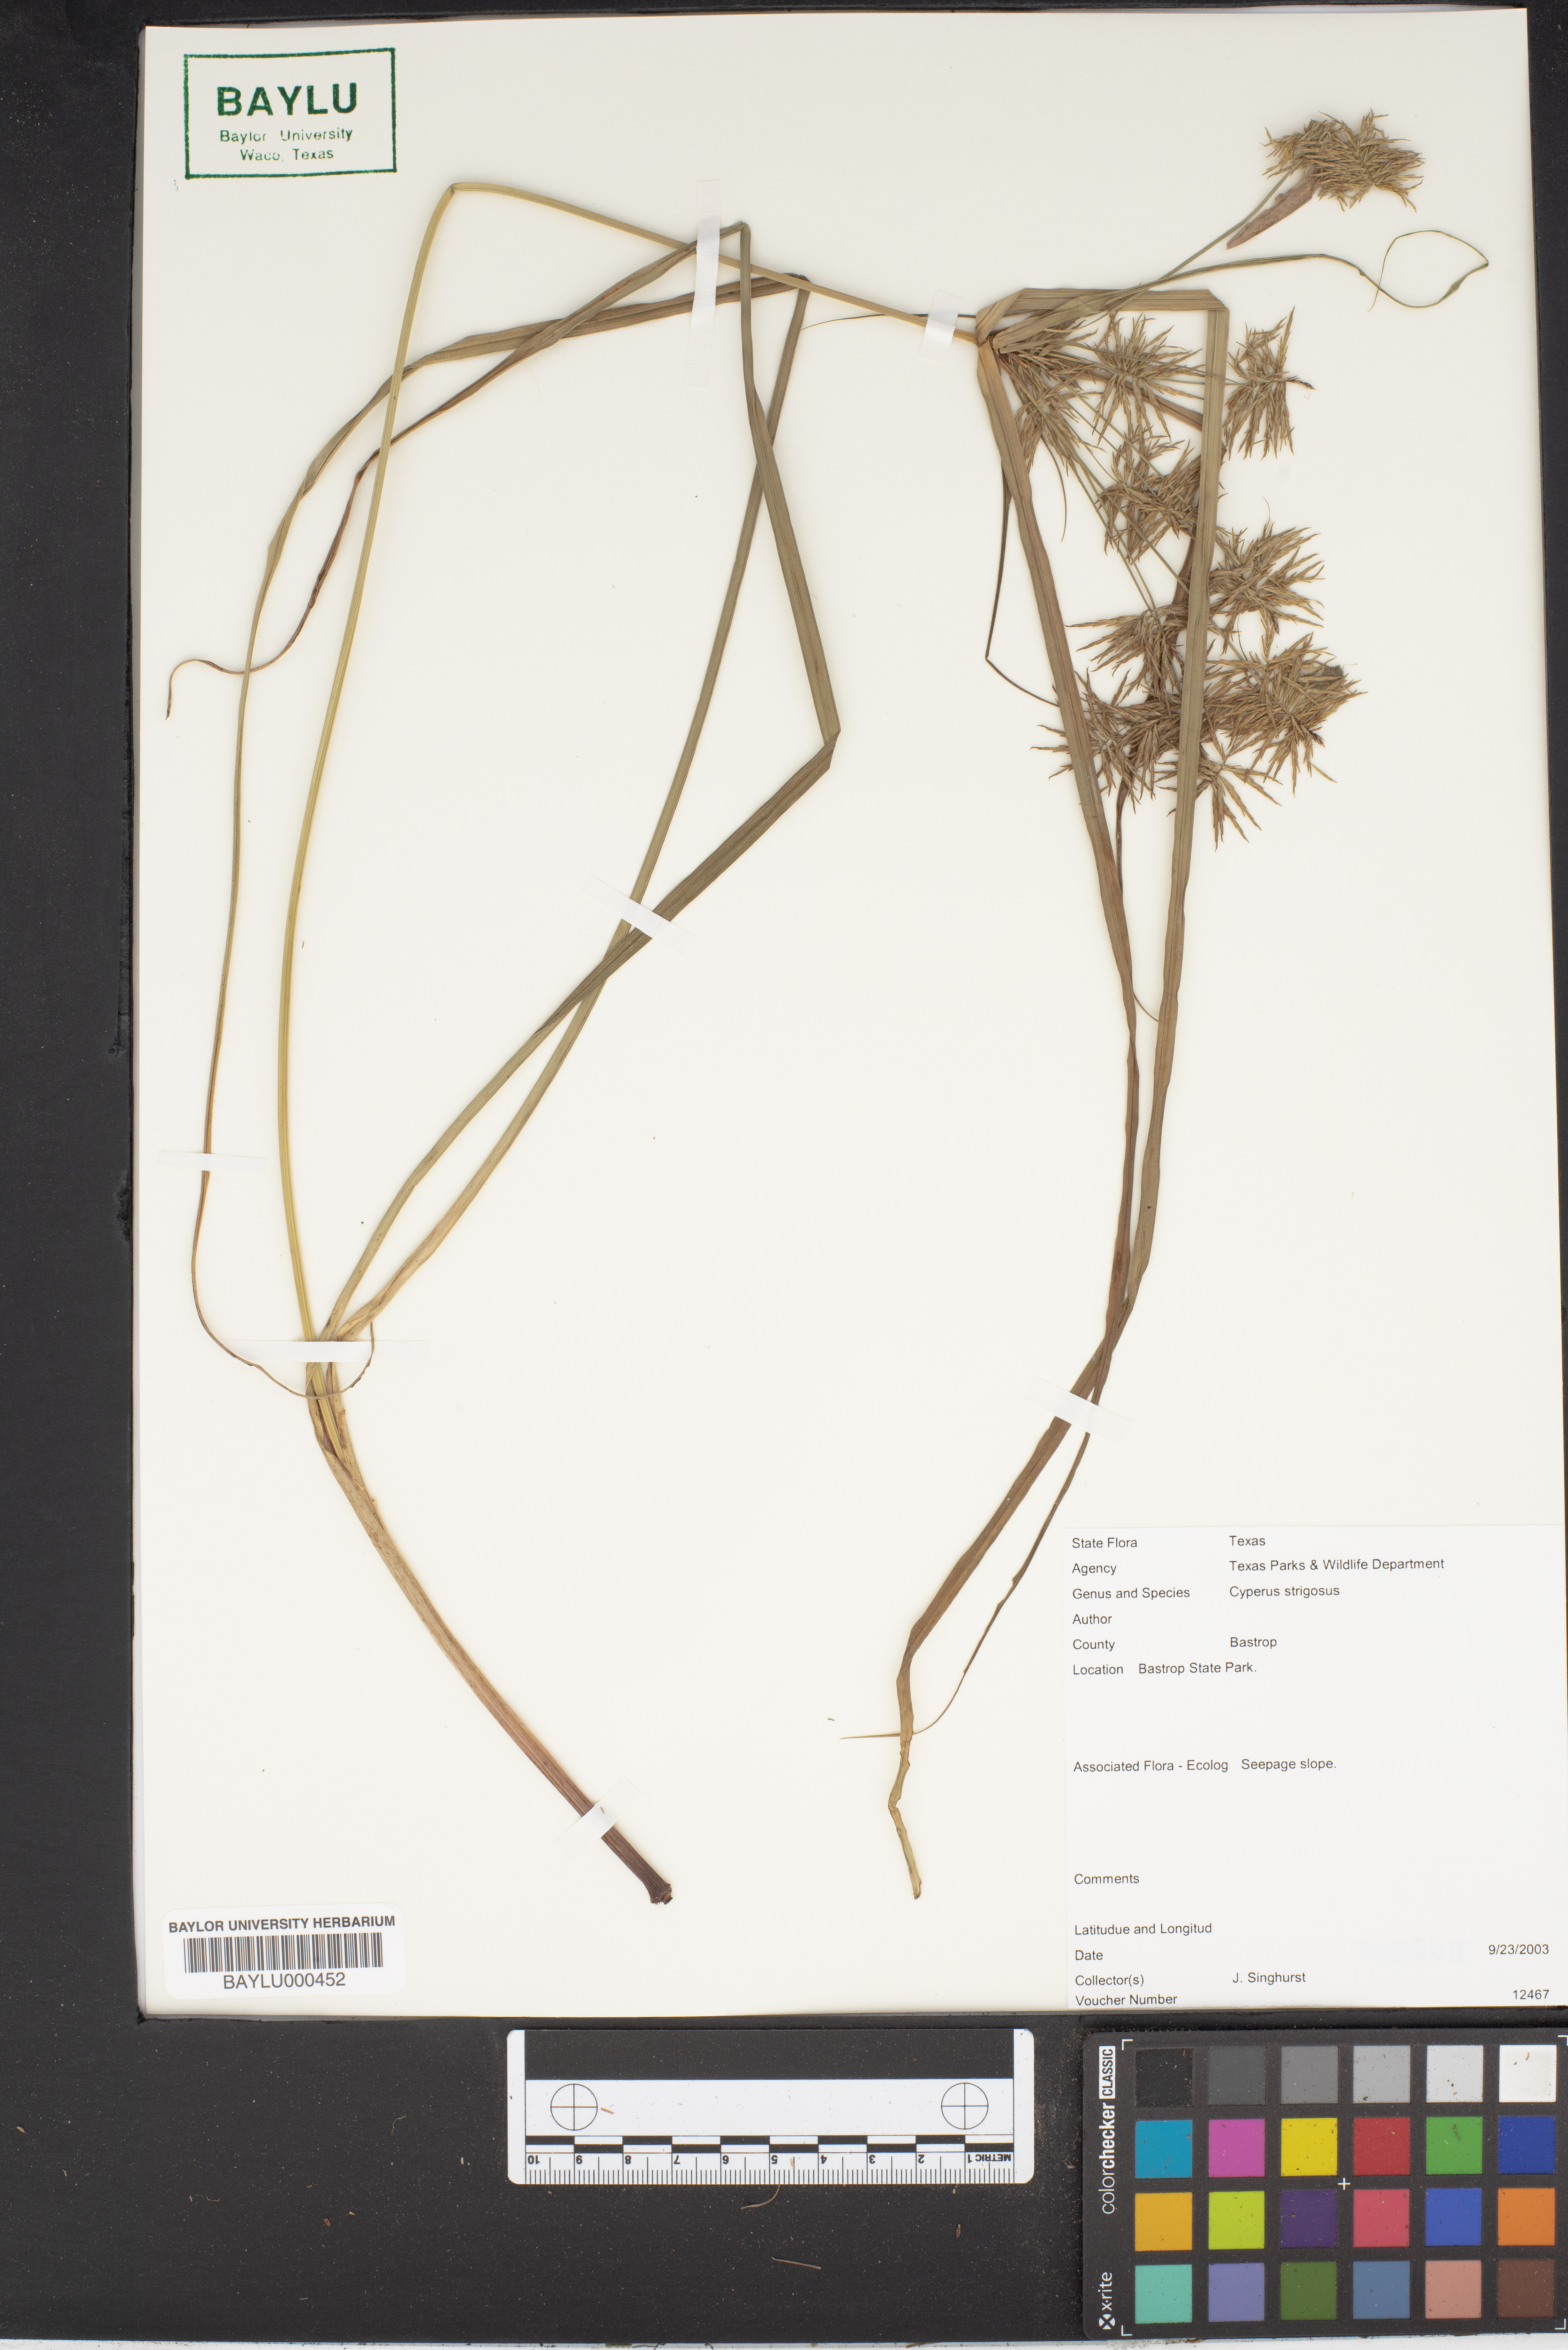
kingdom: Plantae
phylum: Tracheophyta
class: Liliopsida
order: Poales
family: Cyperaceae
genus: Cyperus
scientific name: Cyperus strigosus
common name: False nutsedge
